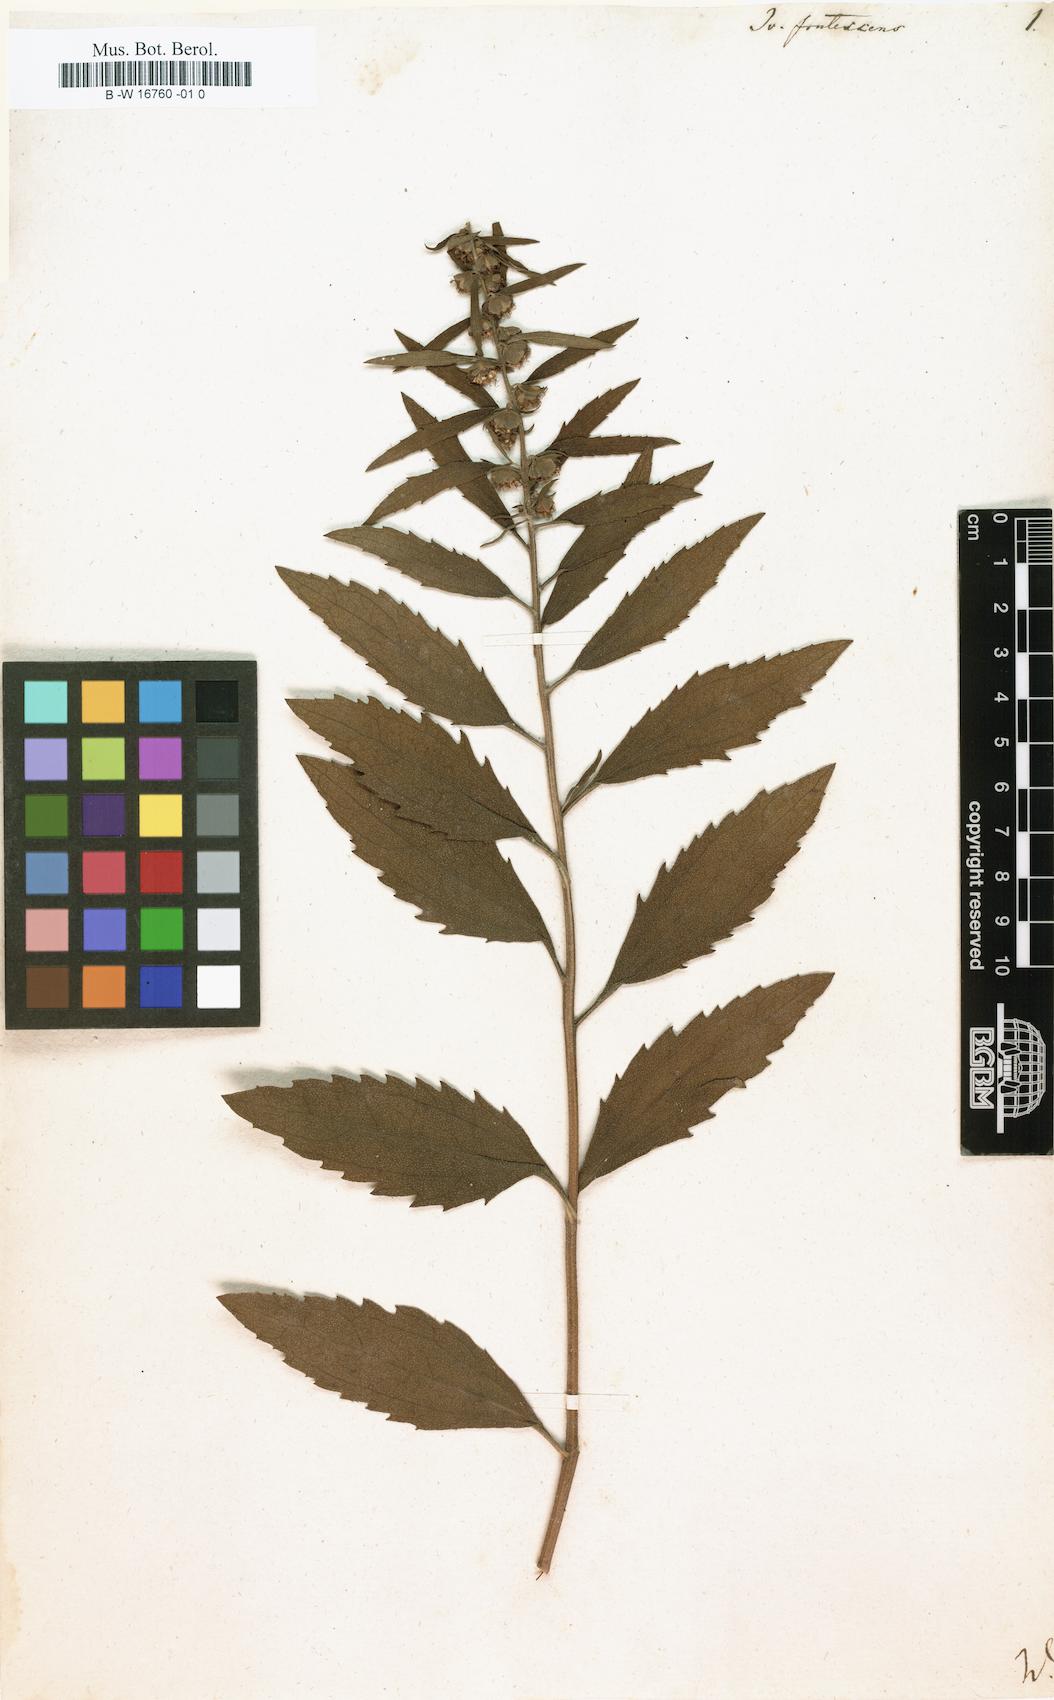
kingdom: Plantae
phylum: Tracheophyta
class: Magnoliopsida
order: Asterales
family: Asteraceae
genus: Iva
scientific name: Iva frutescens
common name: Big-leaved marsh-elder
